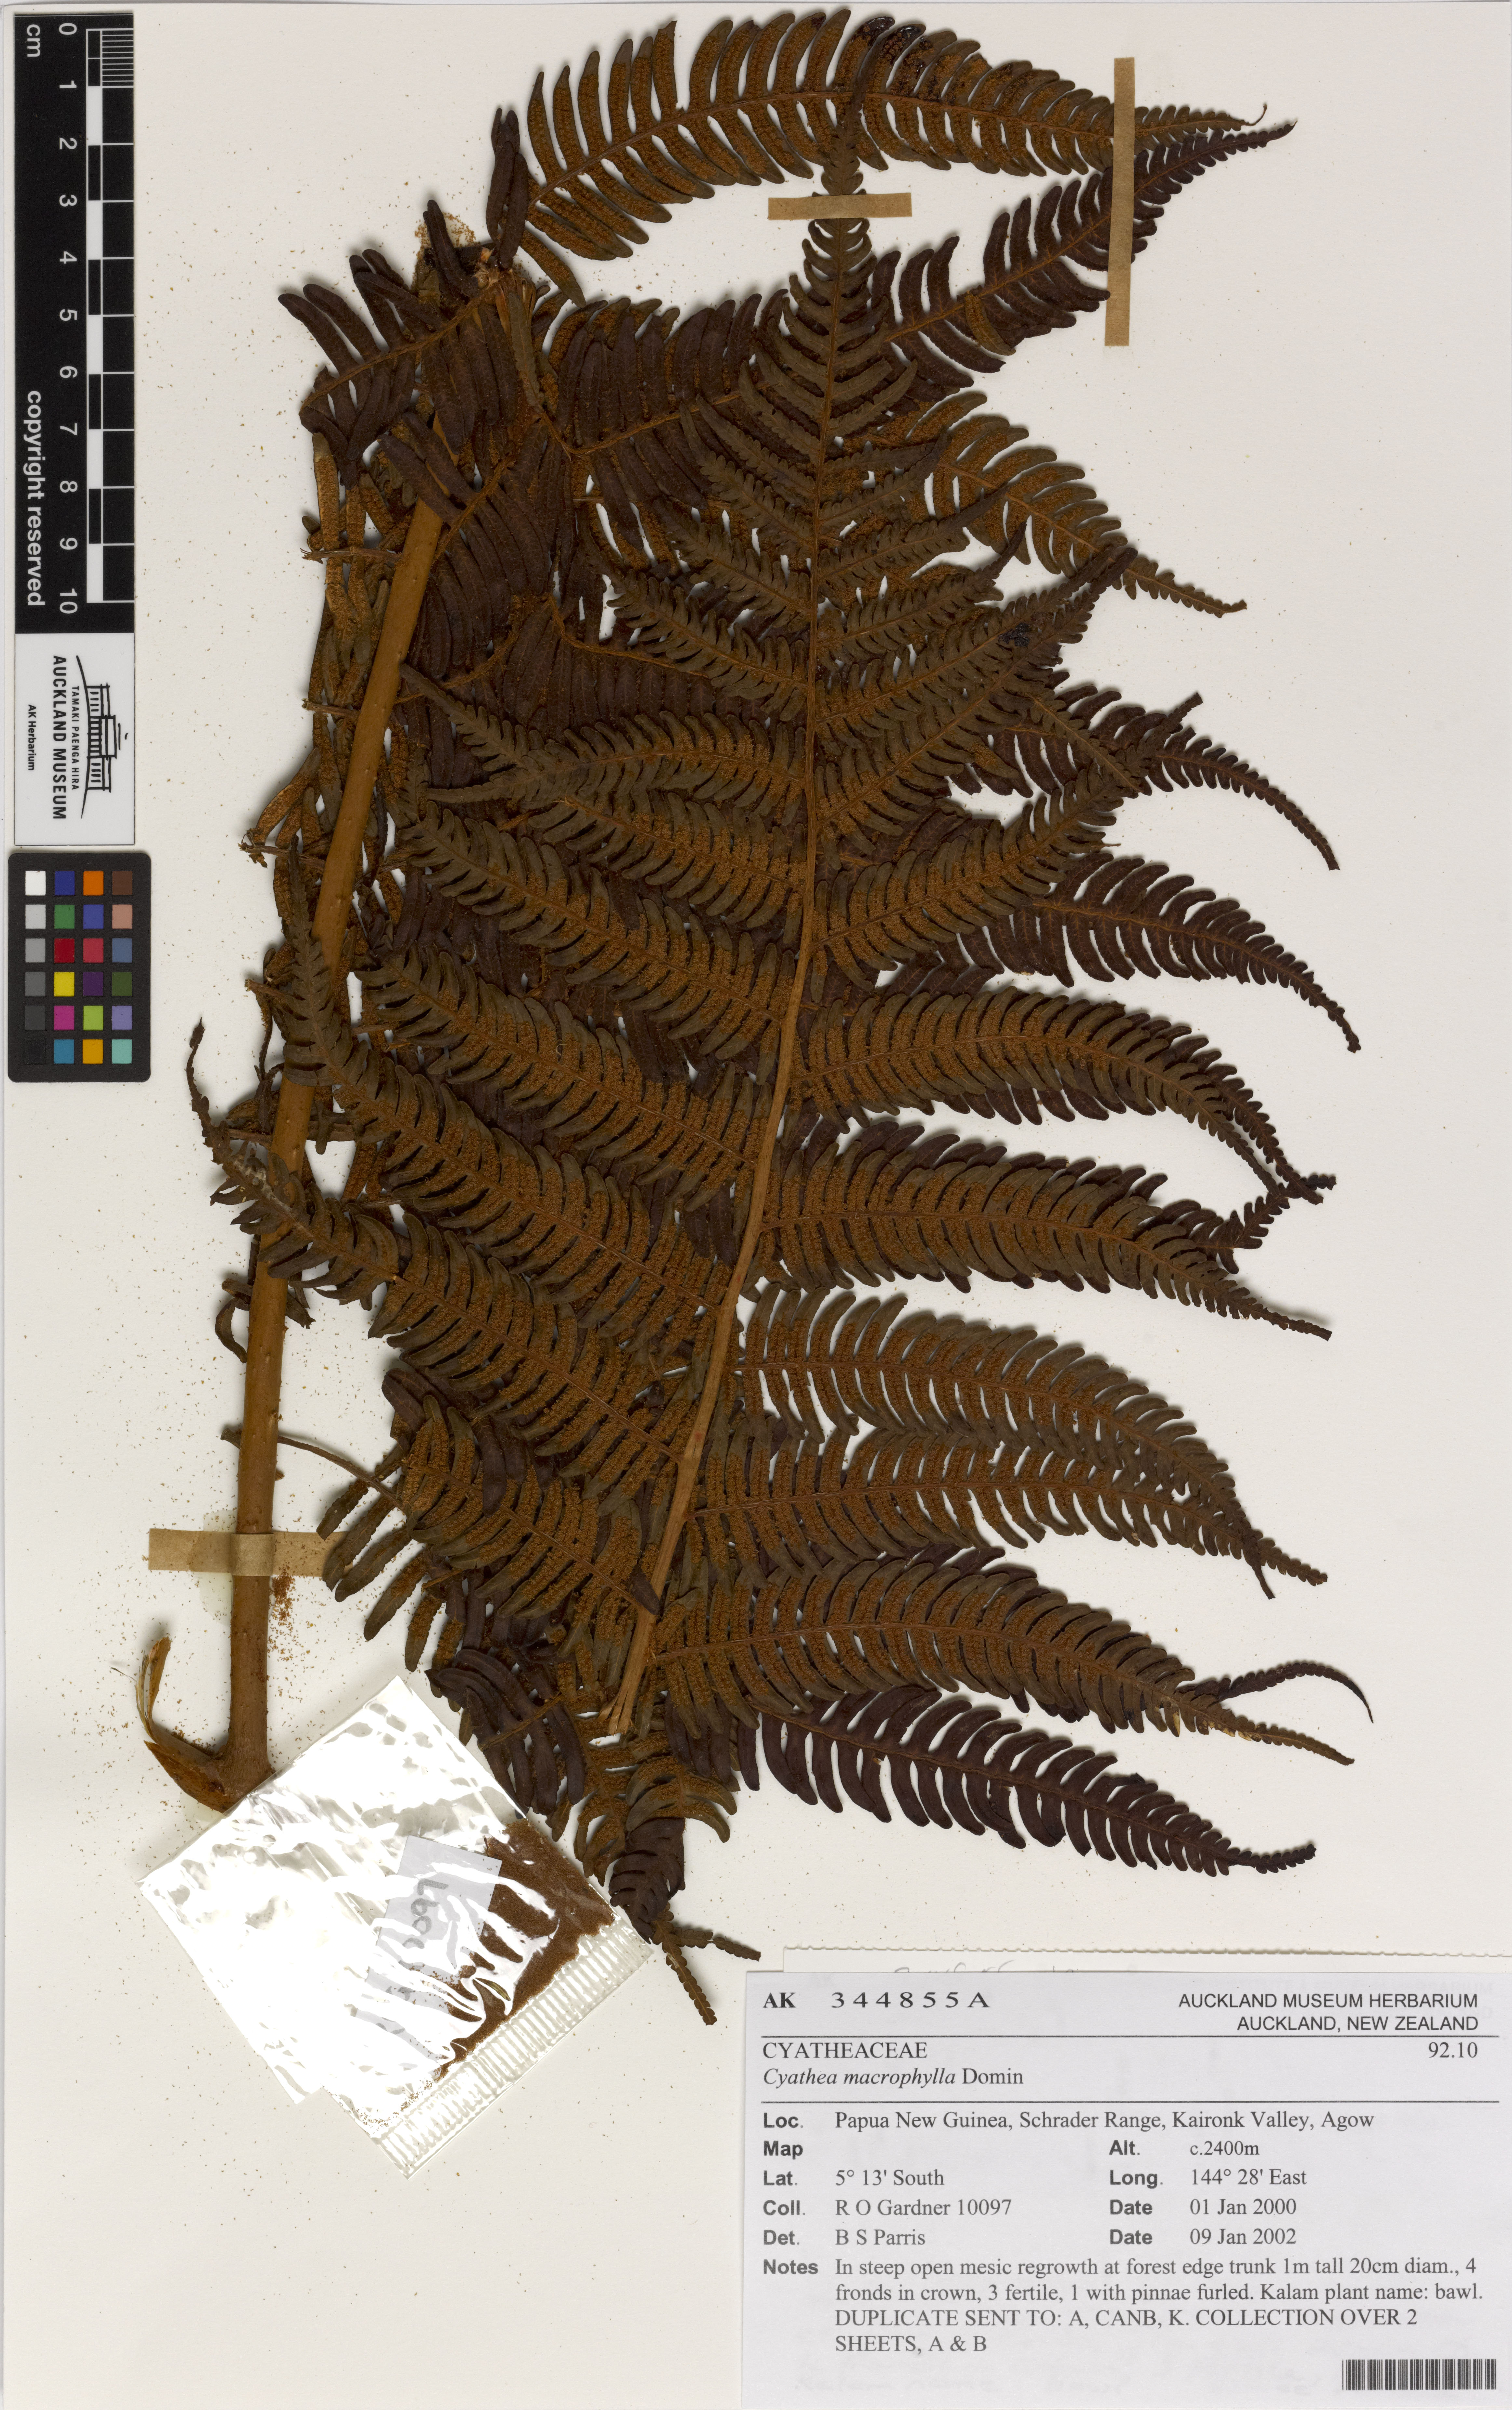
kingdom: Plantae
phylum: Tracheophyta
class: Polypodiopsida
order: Cyatheales
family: Cyatheaceae
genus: Alsophila
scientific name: Alsophila crassicaula
